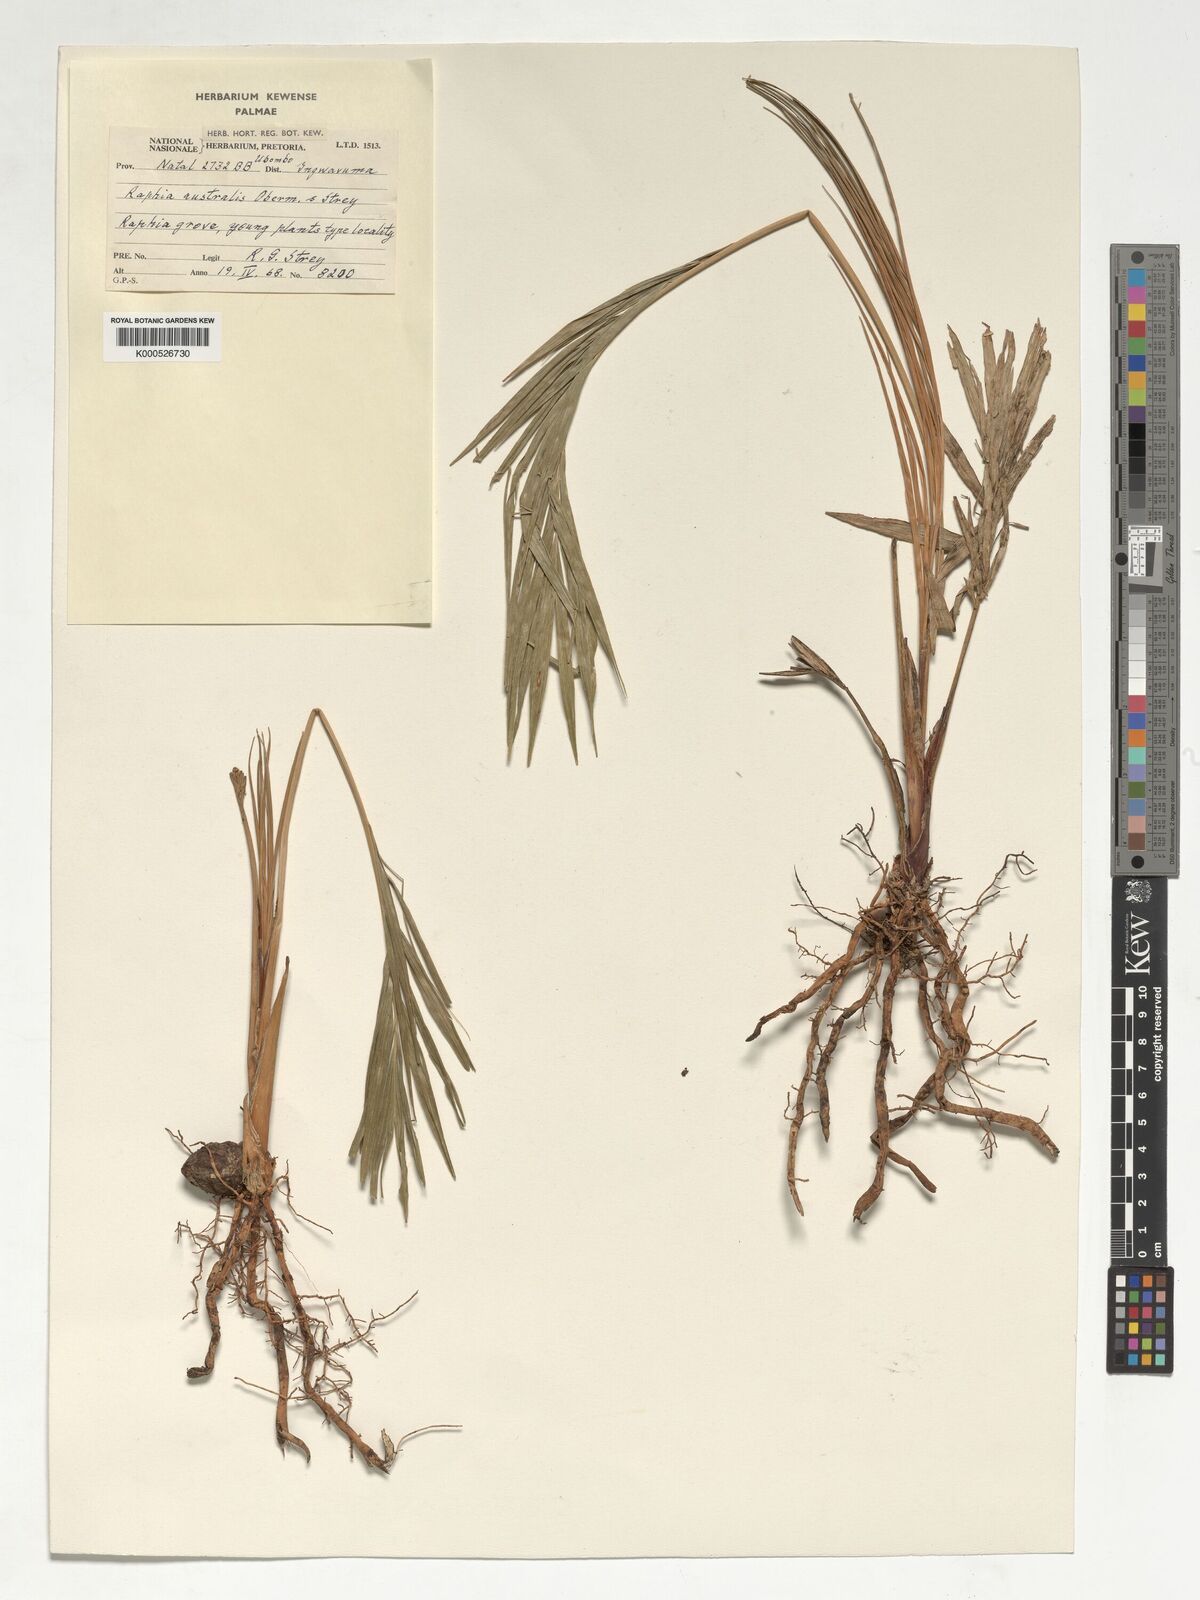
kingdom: Plantae
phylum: Tracheophyta
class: Liliopsida
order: Arecales
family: Arecaceae
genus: Raphia
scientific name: Raphia australis
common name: Giant palm
